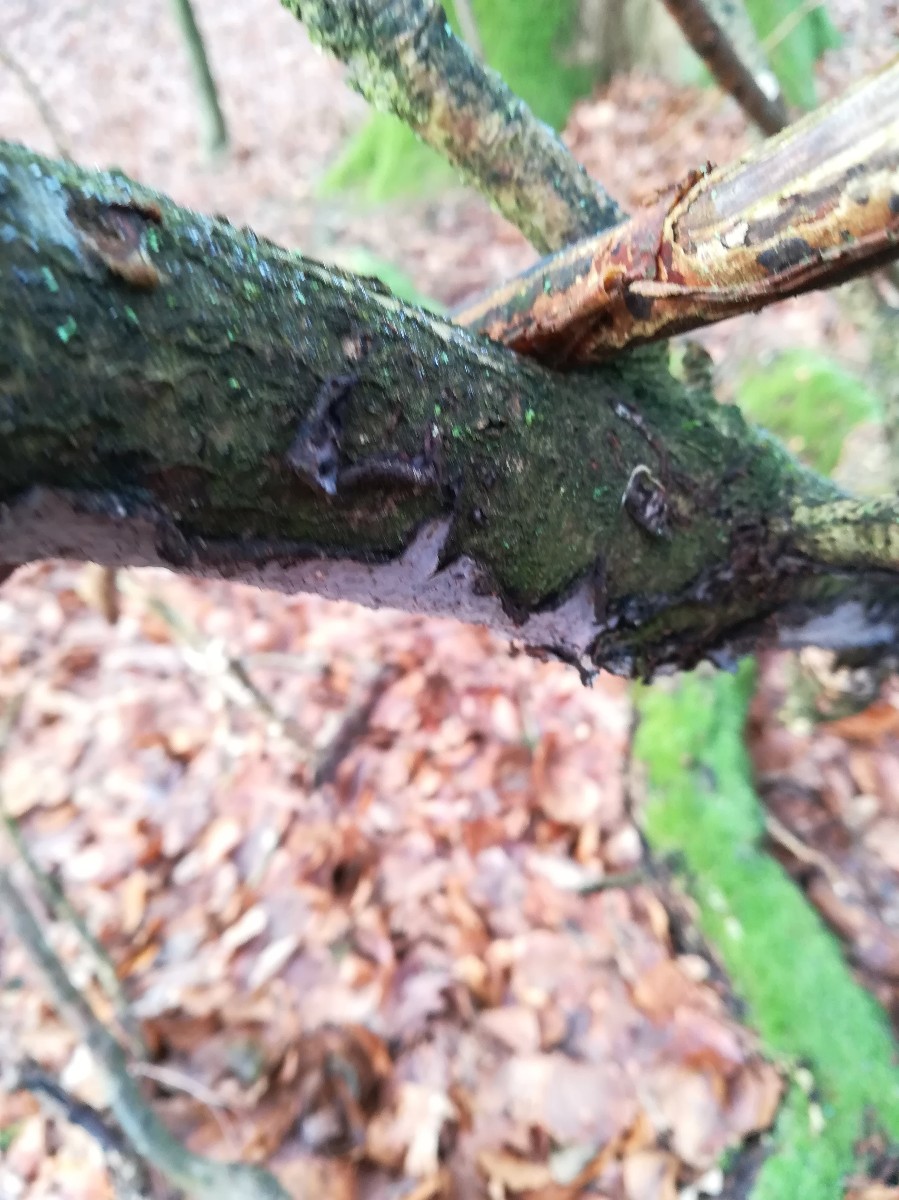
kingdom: Fungi
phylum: Basidiomycota
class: Agaricomycetes
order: Russulales
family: Peniophoraceae
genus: Peniophora
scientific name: Peniophora quercina
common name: ege-voksskind
